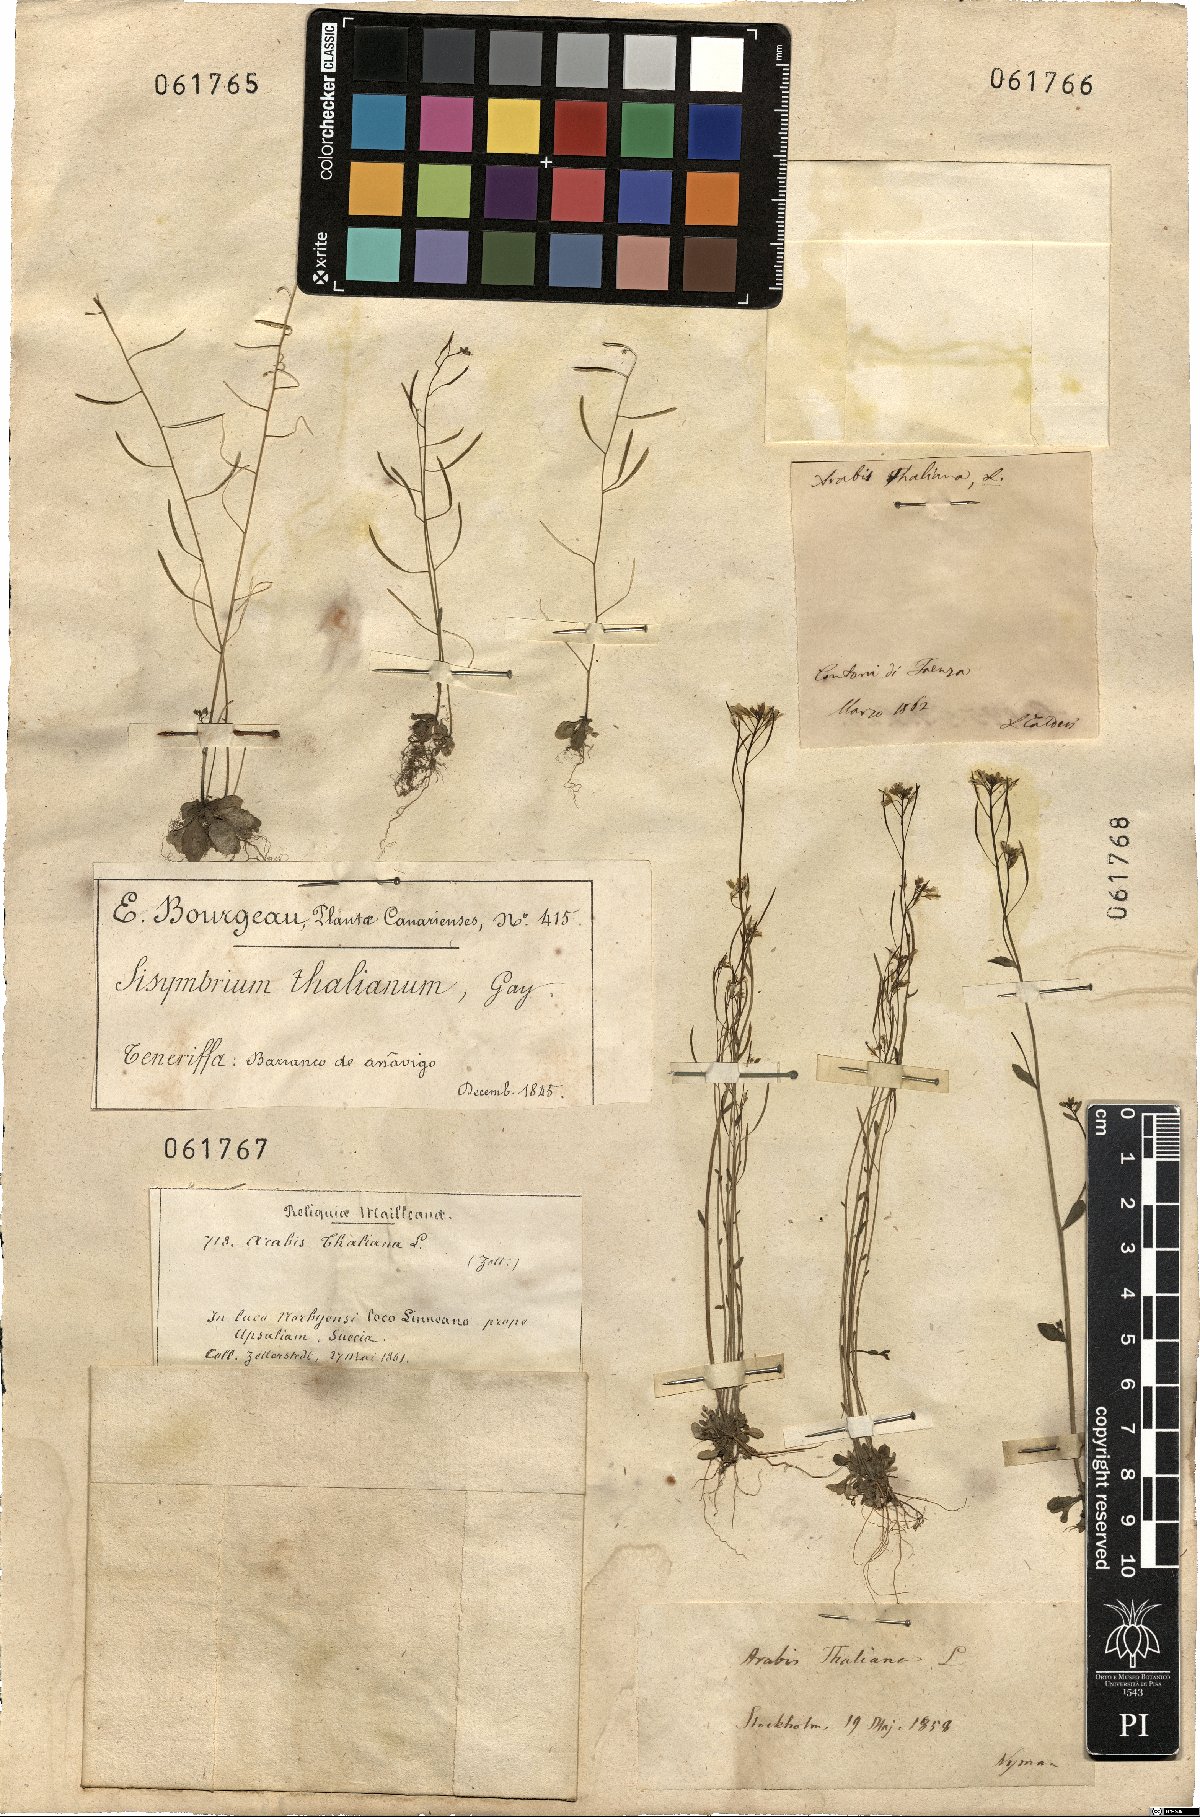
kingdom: Plantae
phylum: Tracheophyta
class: Magnoliopsida
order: Brassicales
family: Brassicaceae
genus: Arabidopsis
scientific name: Arabidopsis thaliana
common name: Thale cress
